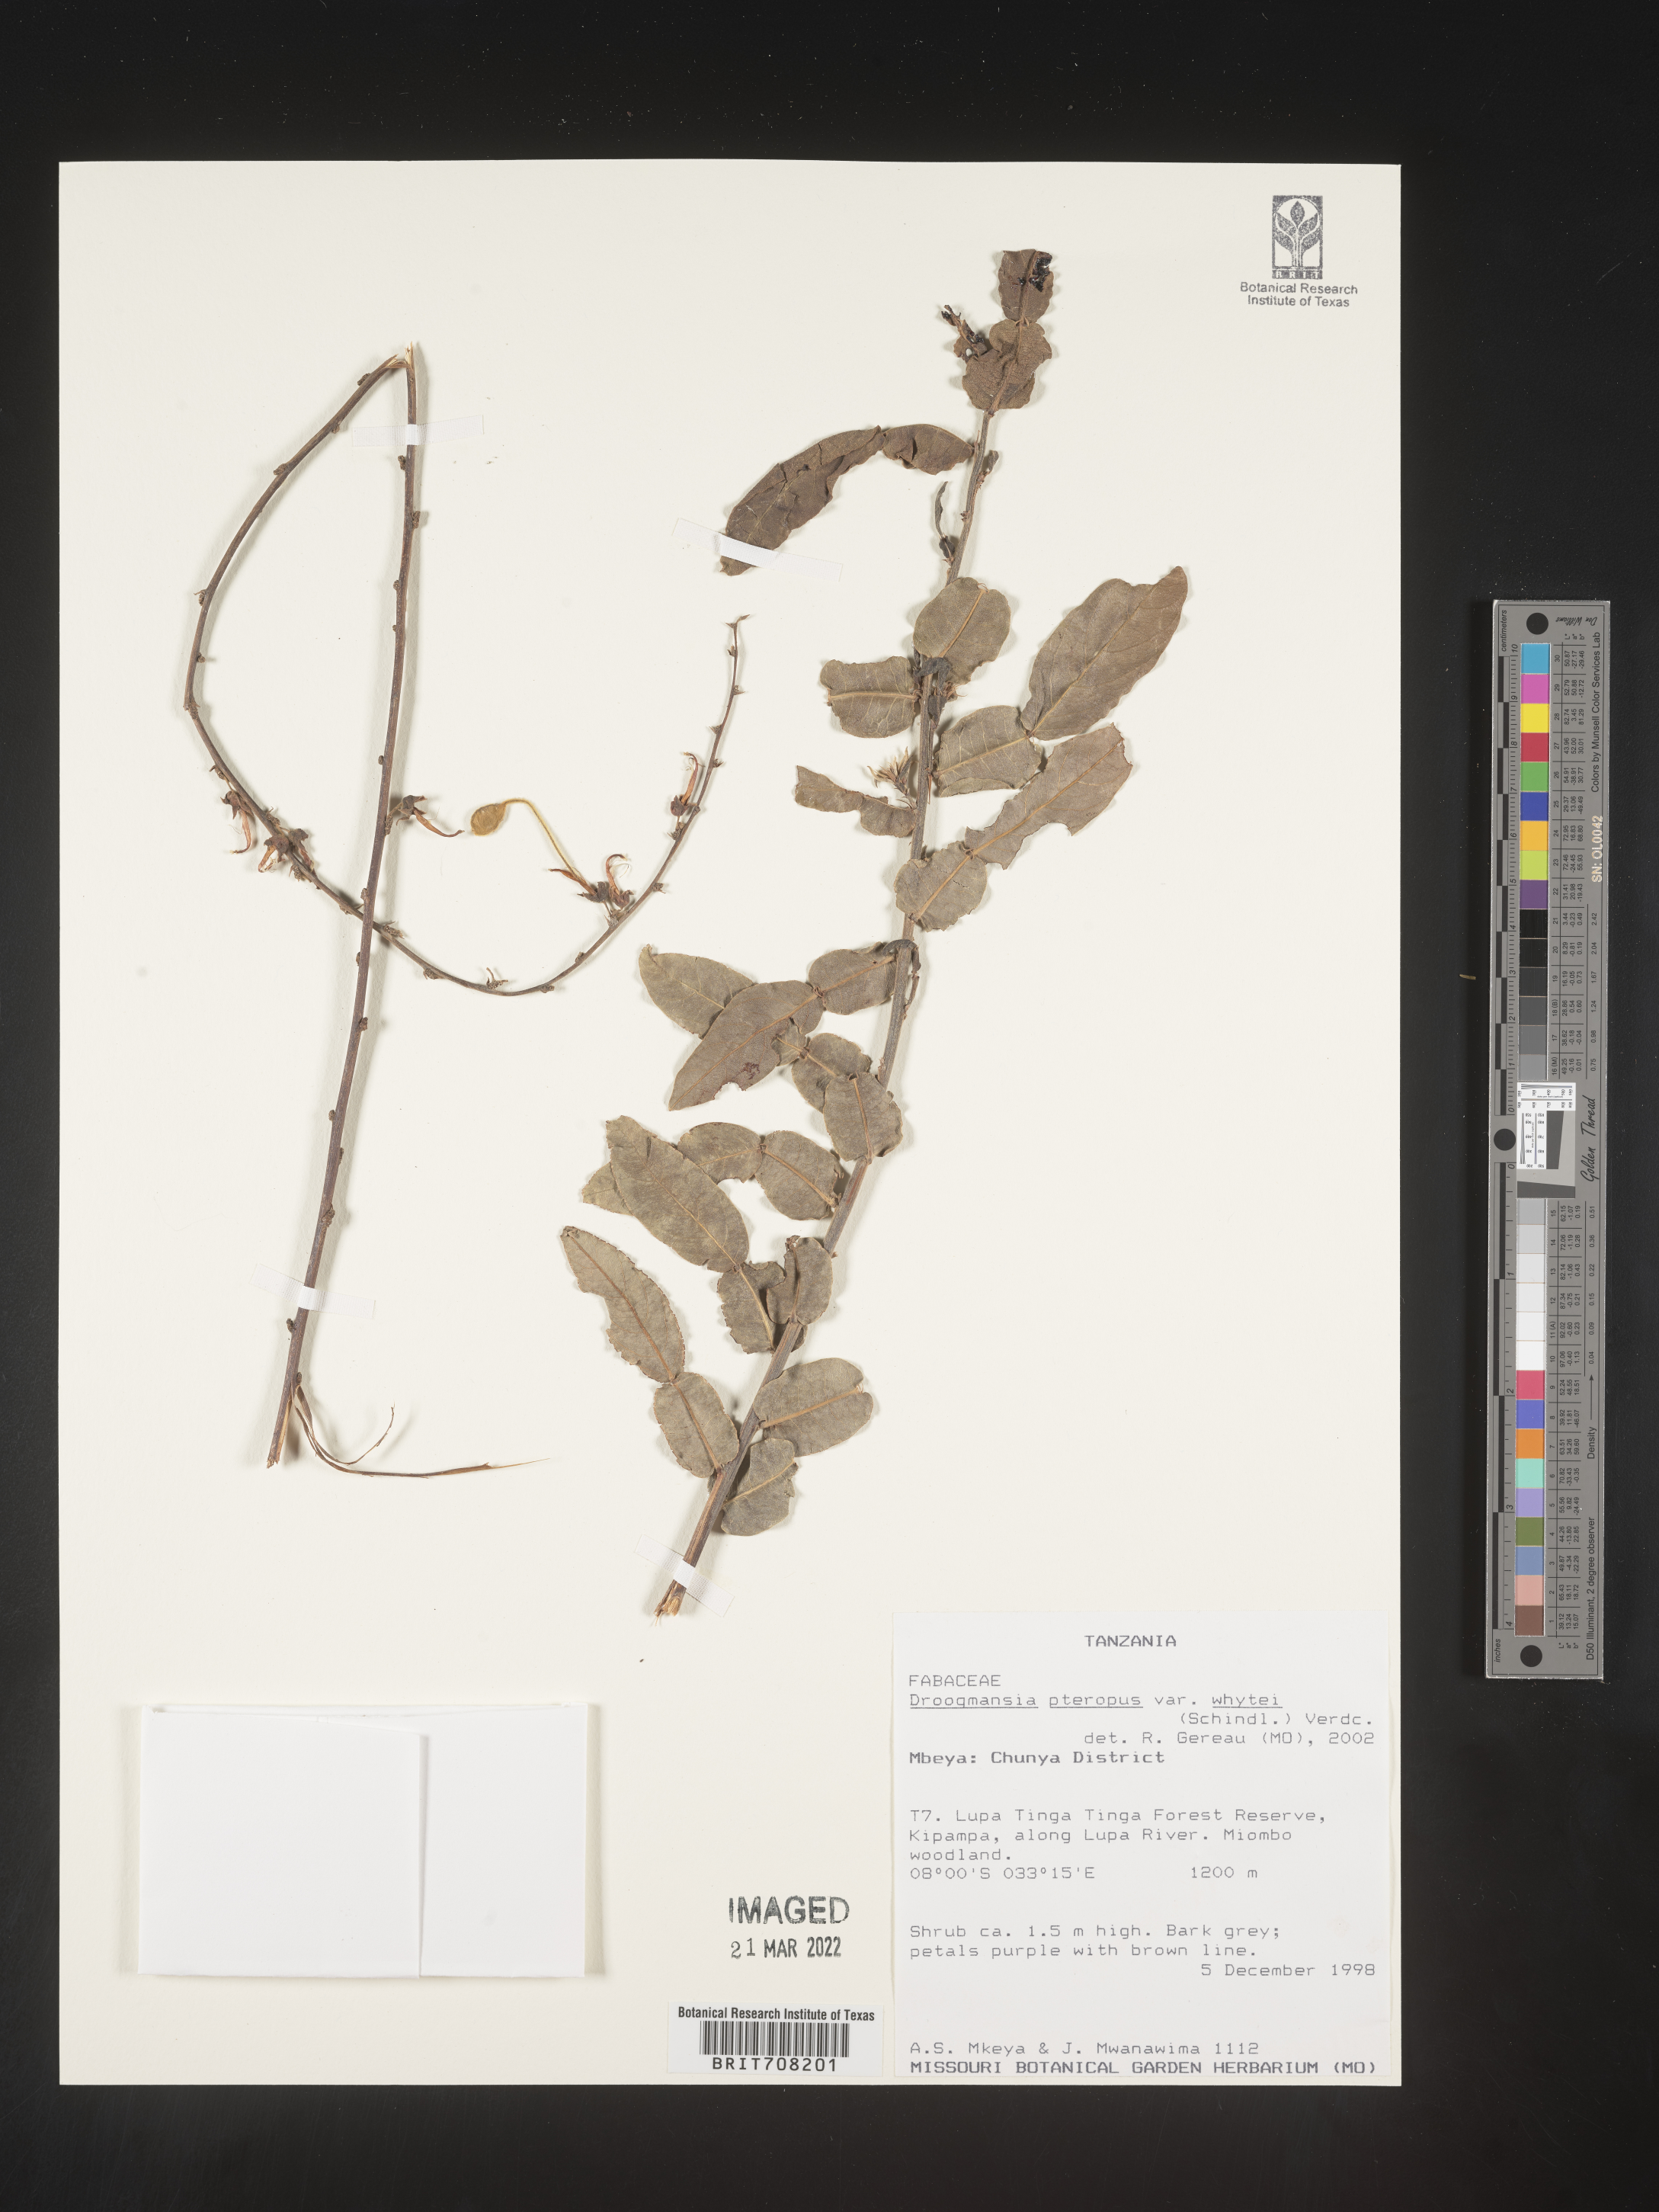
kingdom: Plantae
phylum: Tracheophyta
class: Magnoliopsida
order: Fabales
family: Fabaceae
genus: Droogmansia
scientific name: Droogmansia
